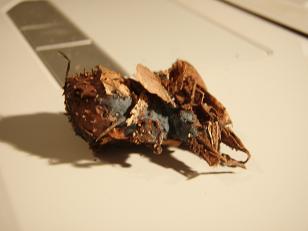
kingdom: Fungi
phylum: Basidiomycota
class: Agaricomycetes
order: Atheliales
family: Atheliaceae
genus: Byssocorticium
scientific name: Byssocorticium atrovirens
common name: blå førnehinde
